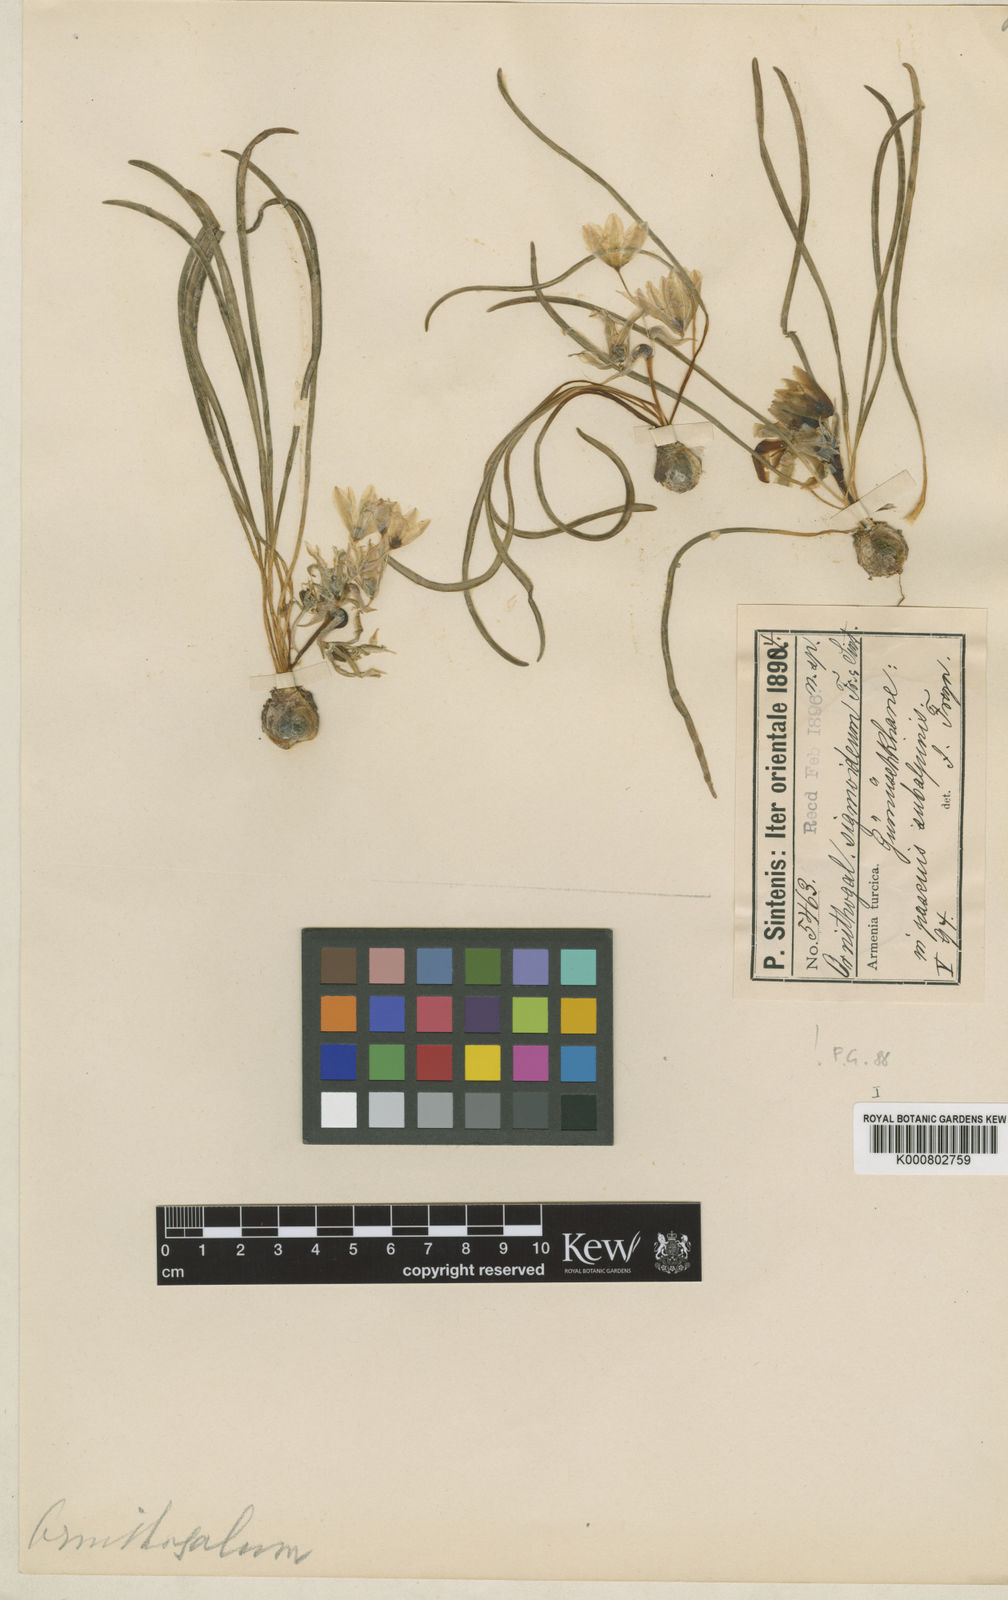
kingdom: Plantae
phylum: Tracheophyta
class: Liliopsida
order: Asparagales
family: Asparagaceae
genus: Ornithogalum
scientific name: Ornithogalum sigmoideum
